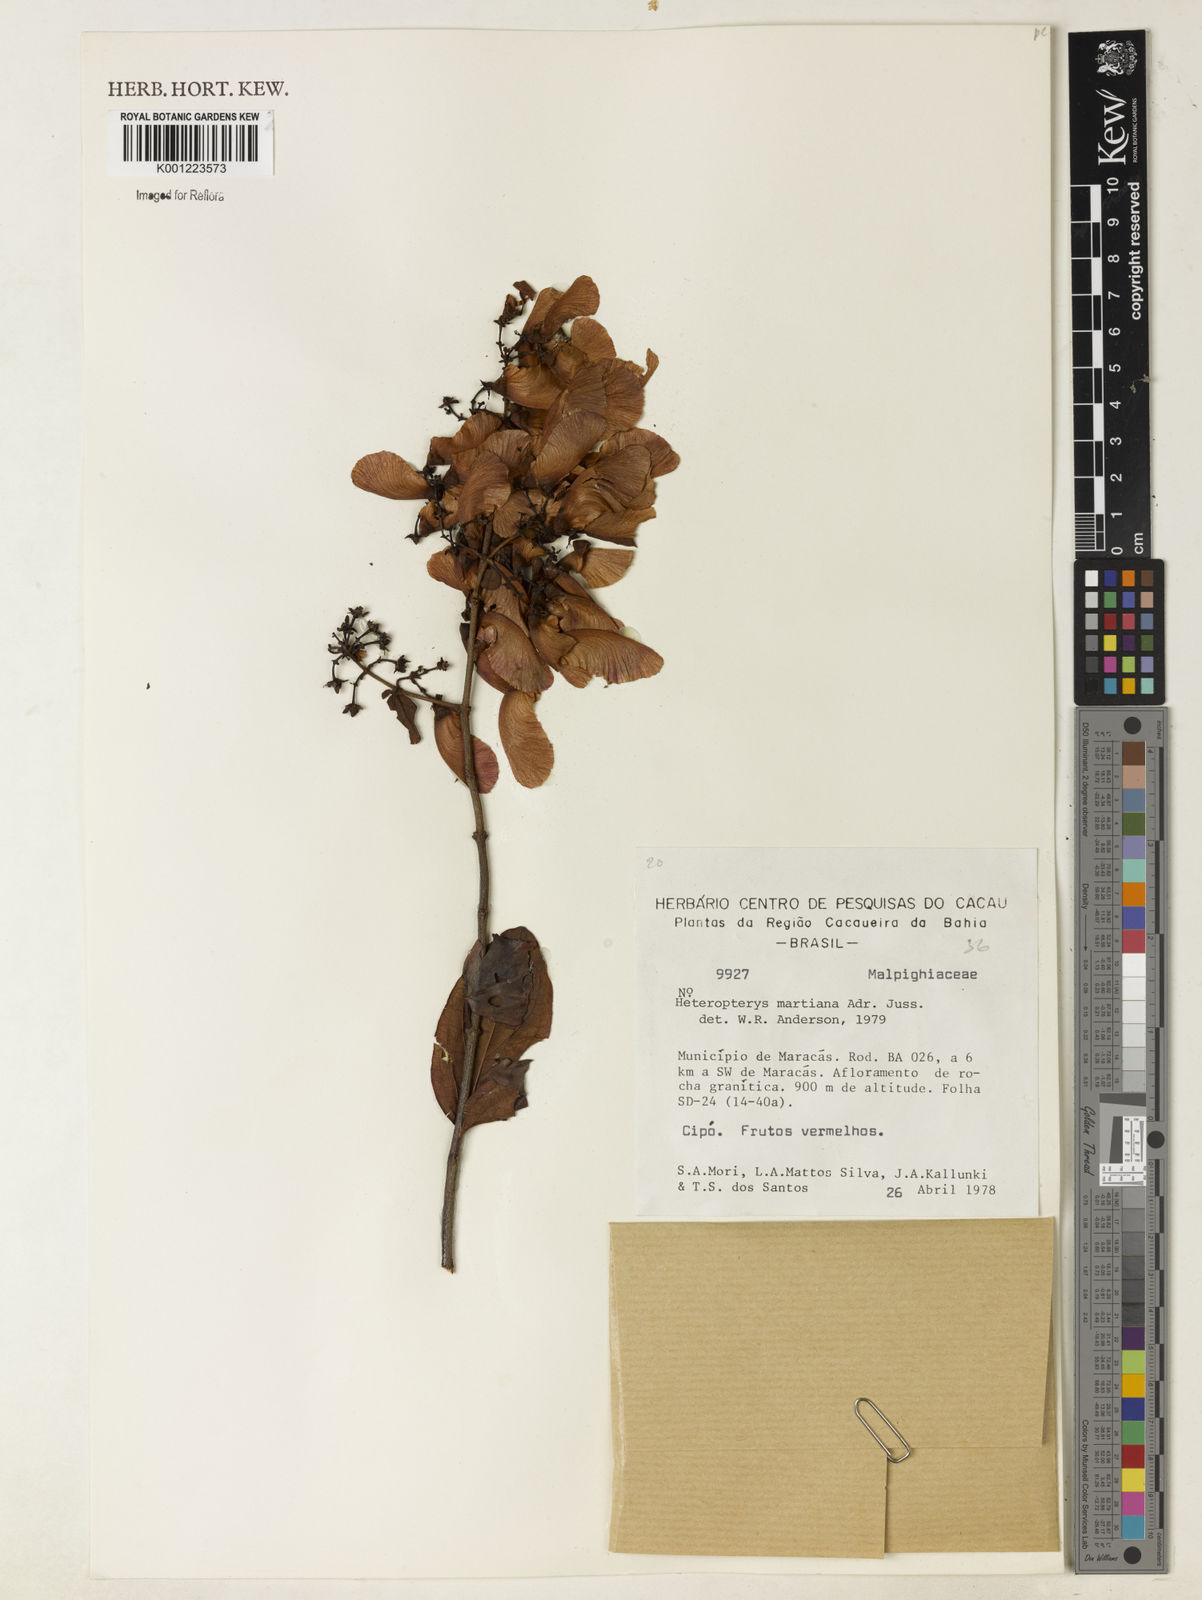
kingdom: Plantae
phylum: Tracheophyta
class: Magnoliopsida
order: Malpighiales
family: Malpighiaceae
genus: Heteropterys
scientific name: Heteropterys syringifolia
